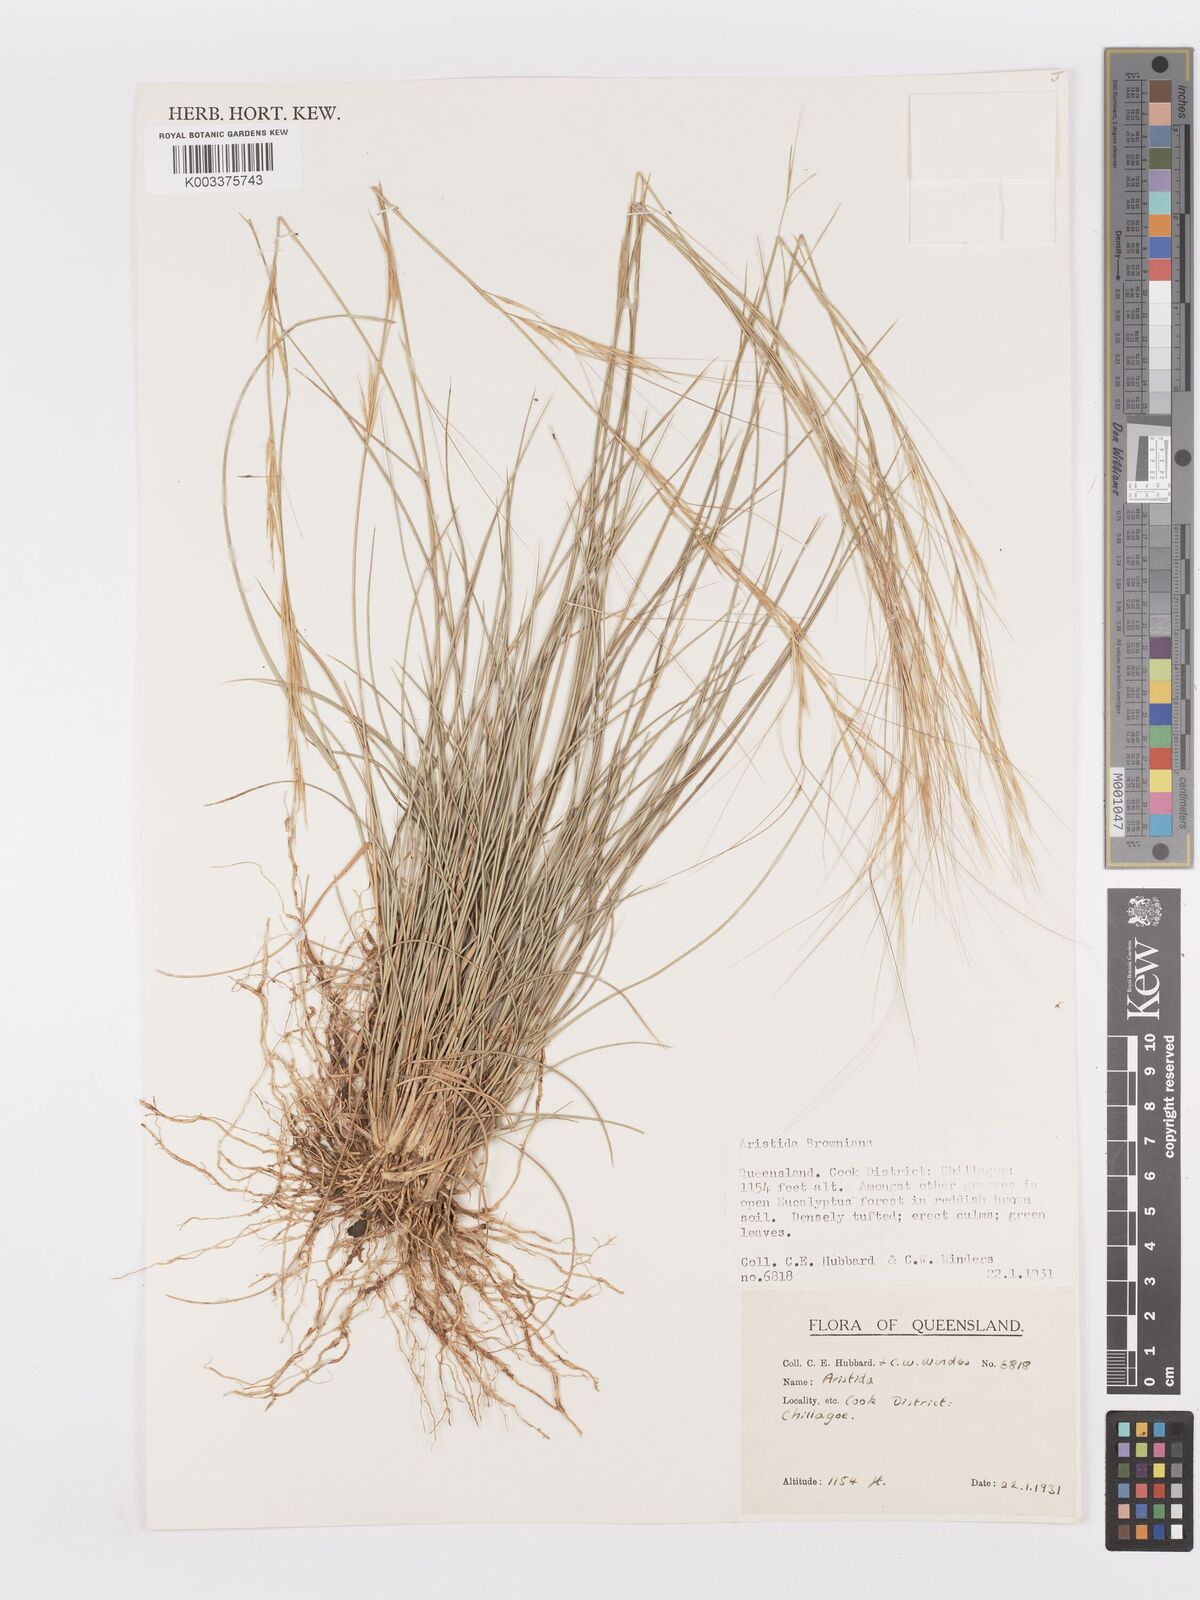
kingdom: Plantae
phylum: Tracheophyta
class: Liliopsida
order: Poales
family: Poaceae
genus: Aristida
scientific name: Aristida
